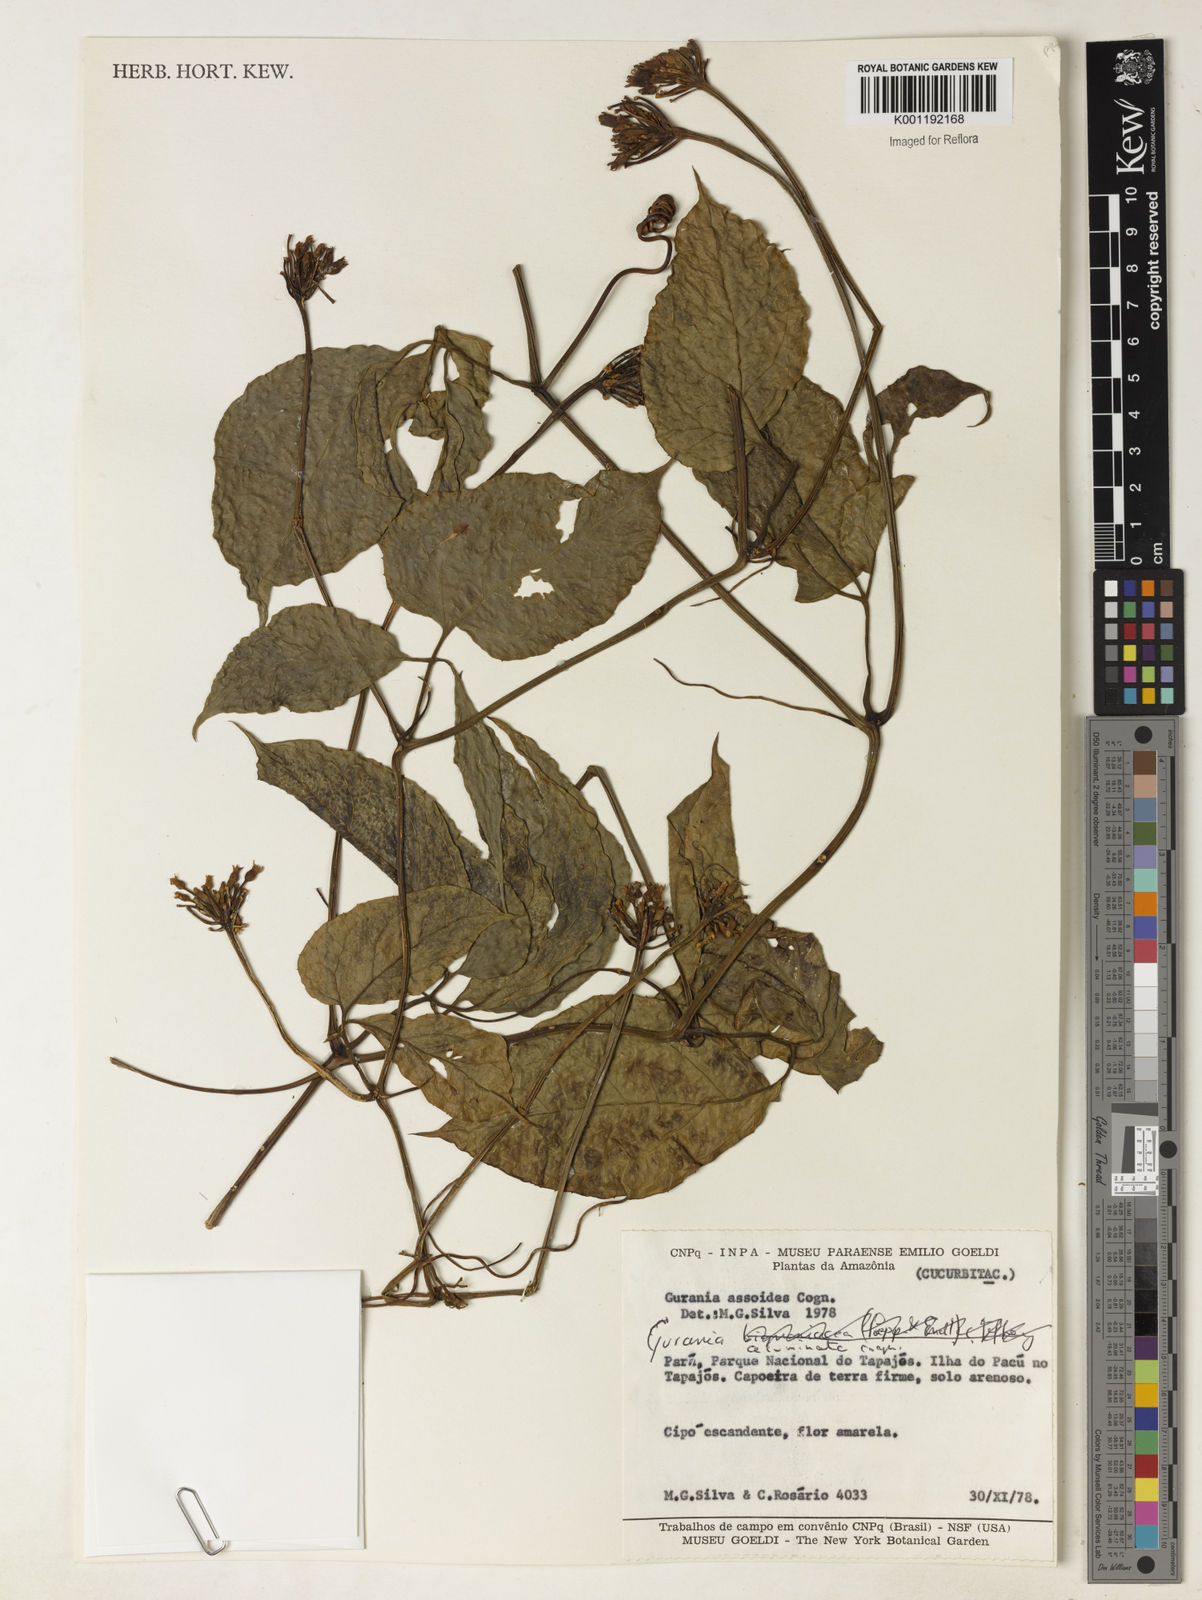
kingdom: Plantae
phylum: Tracheophyta
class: Magnoliopsida
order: Cucurbitales
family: Cucurbitaceae
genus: Gurania
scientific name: Gurania bignoniacea
